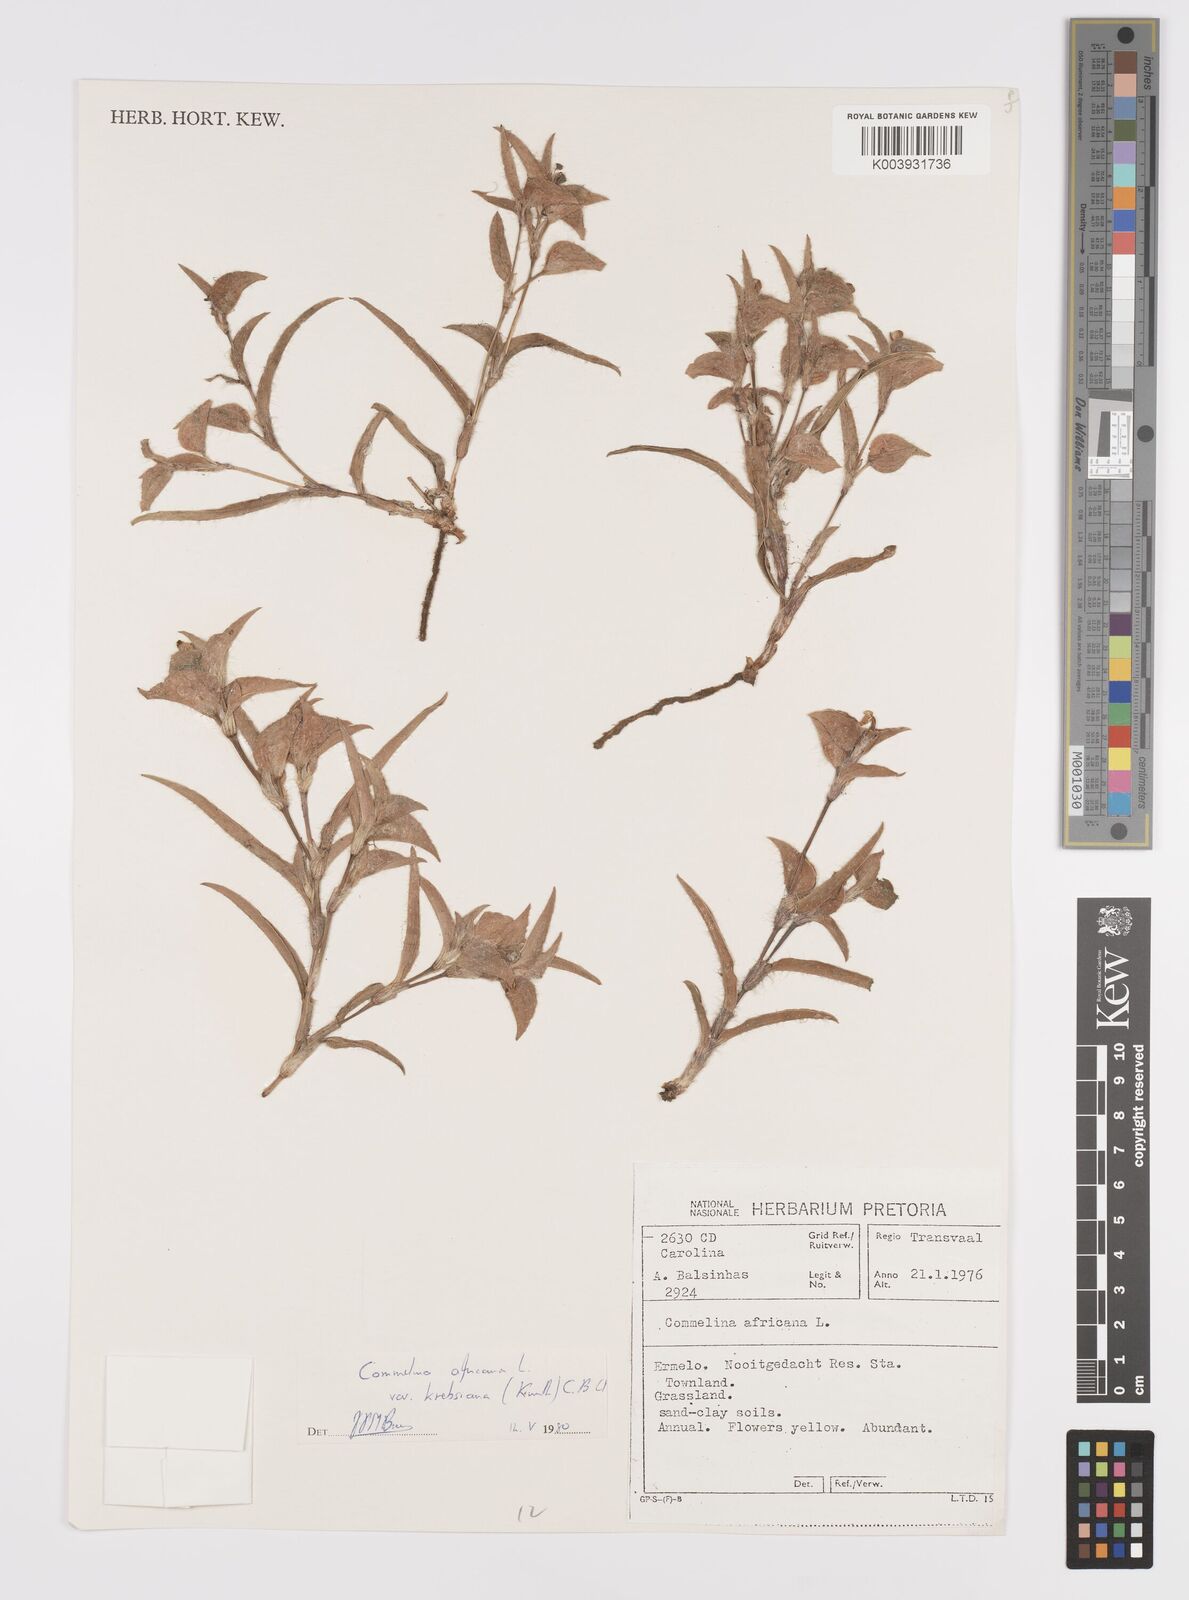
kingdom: Plantae
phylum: Tracheophyta
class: Liliopsida
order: Commelinales
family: Commelinaceae
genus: Commelina
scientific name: Commelina africana
